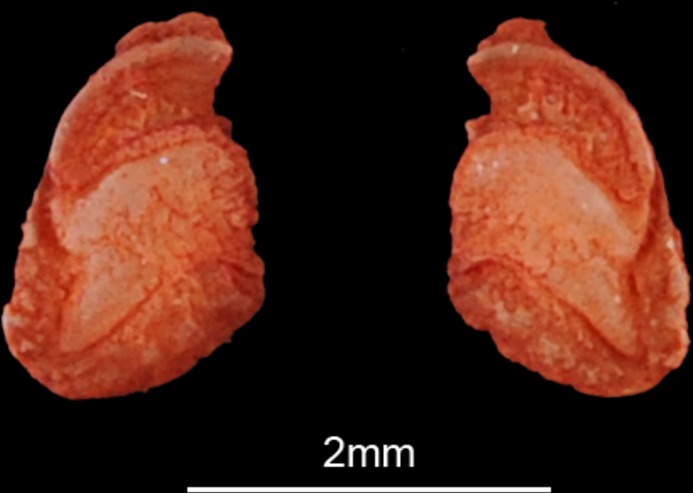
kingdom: Animalia
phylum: Chordata
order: Siluriformes
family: Mochokidae
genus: Synodontis
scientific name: Synodontis schall
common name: Wahrindi
